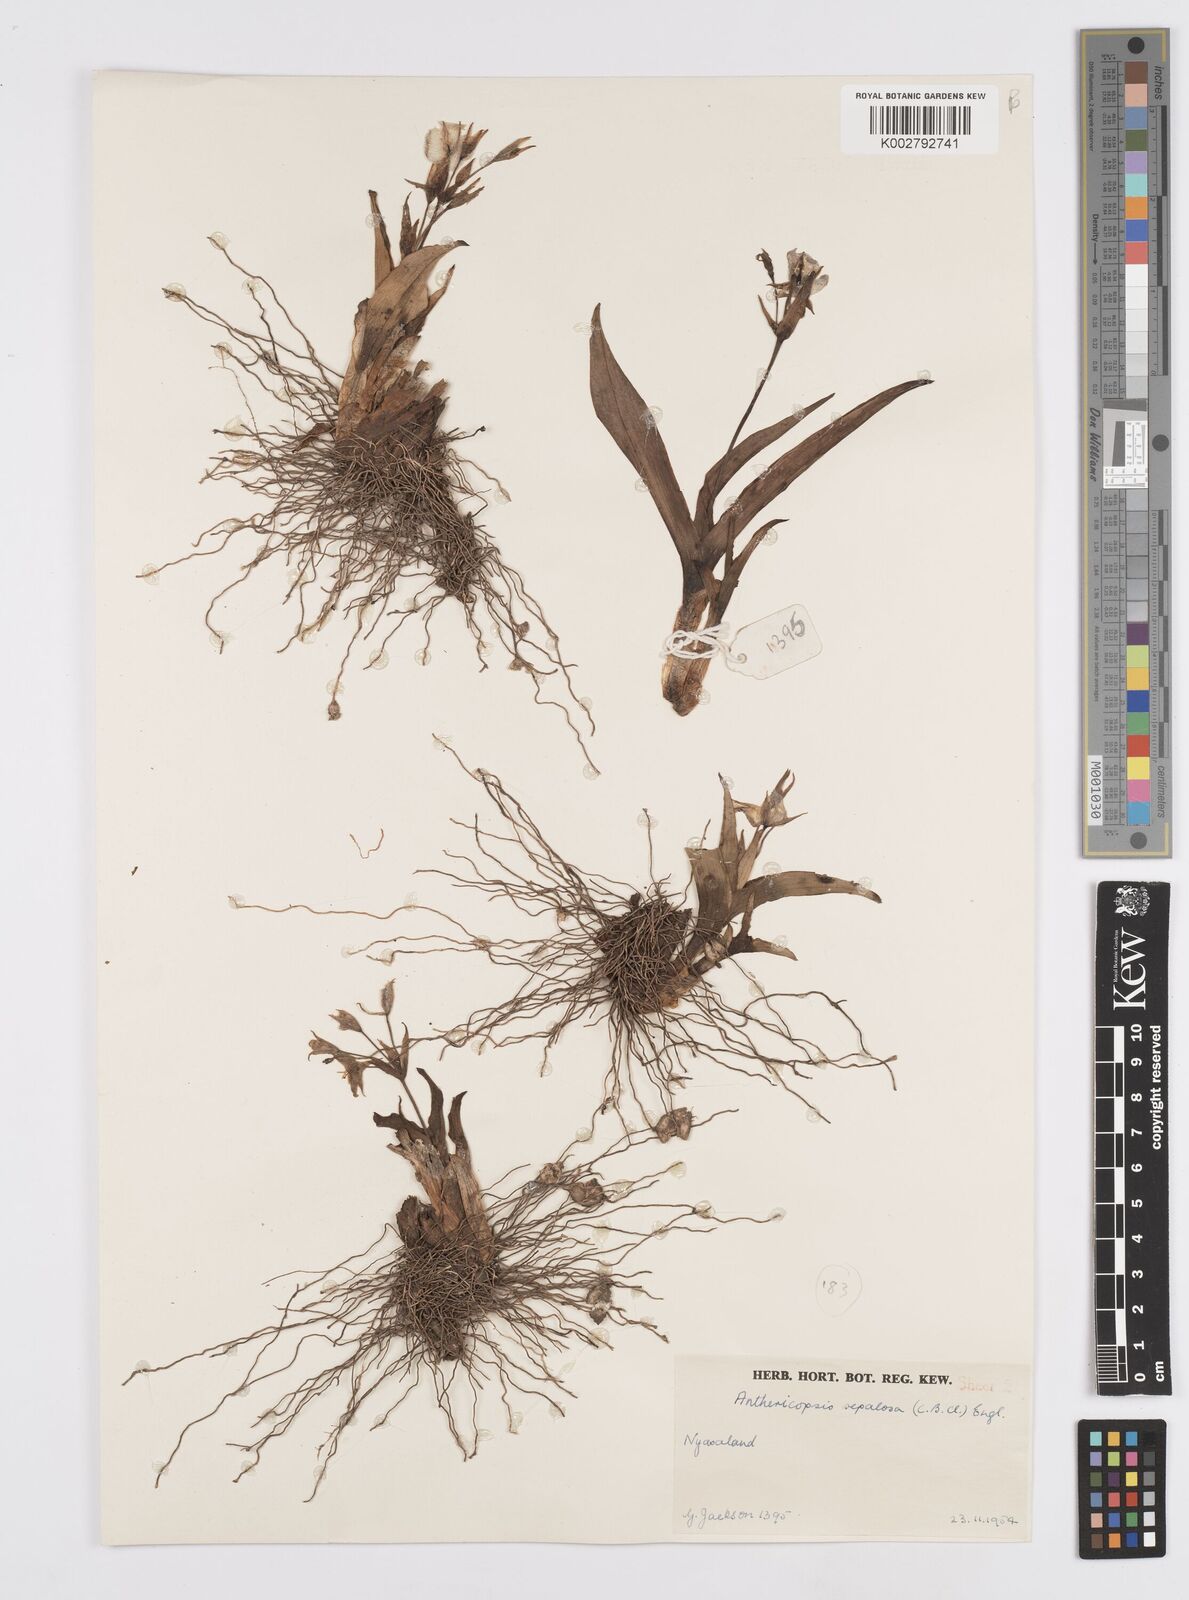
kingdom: Plantae
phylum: Tracheophyta
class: Liliopsida
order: Commelinales
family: Commelinaceae
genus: Anthericopsis
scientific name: Anthericopsis sepalosa
